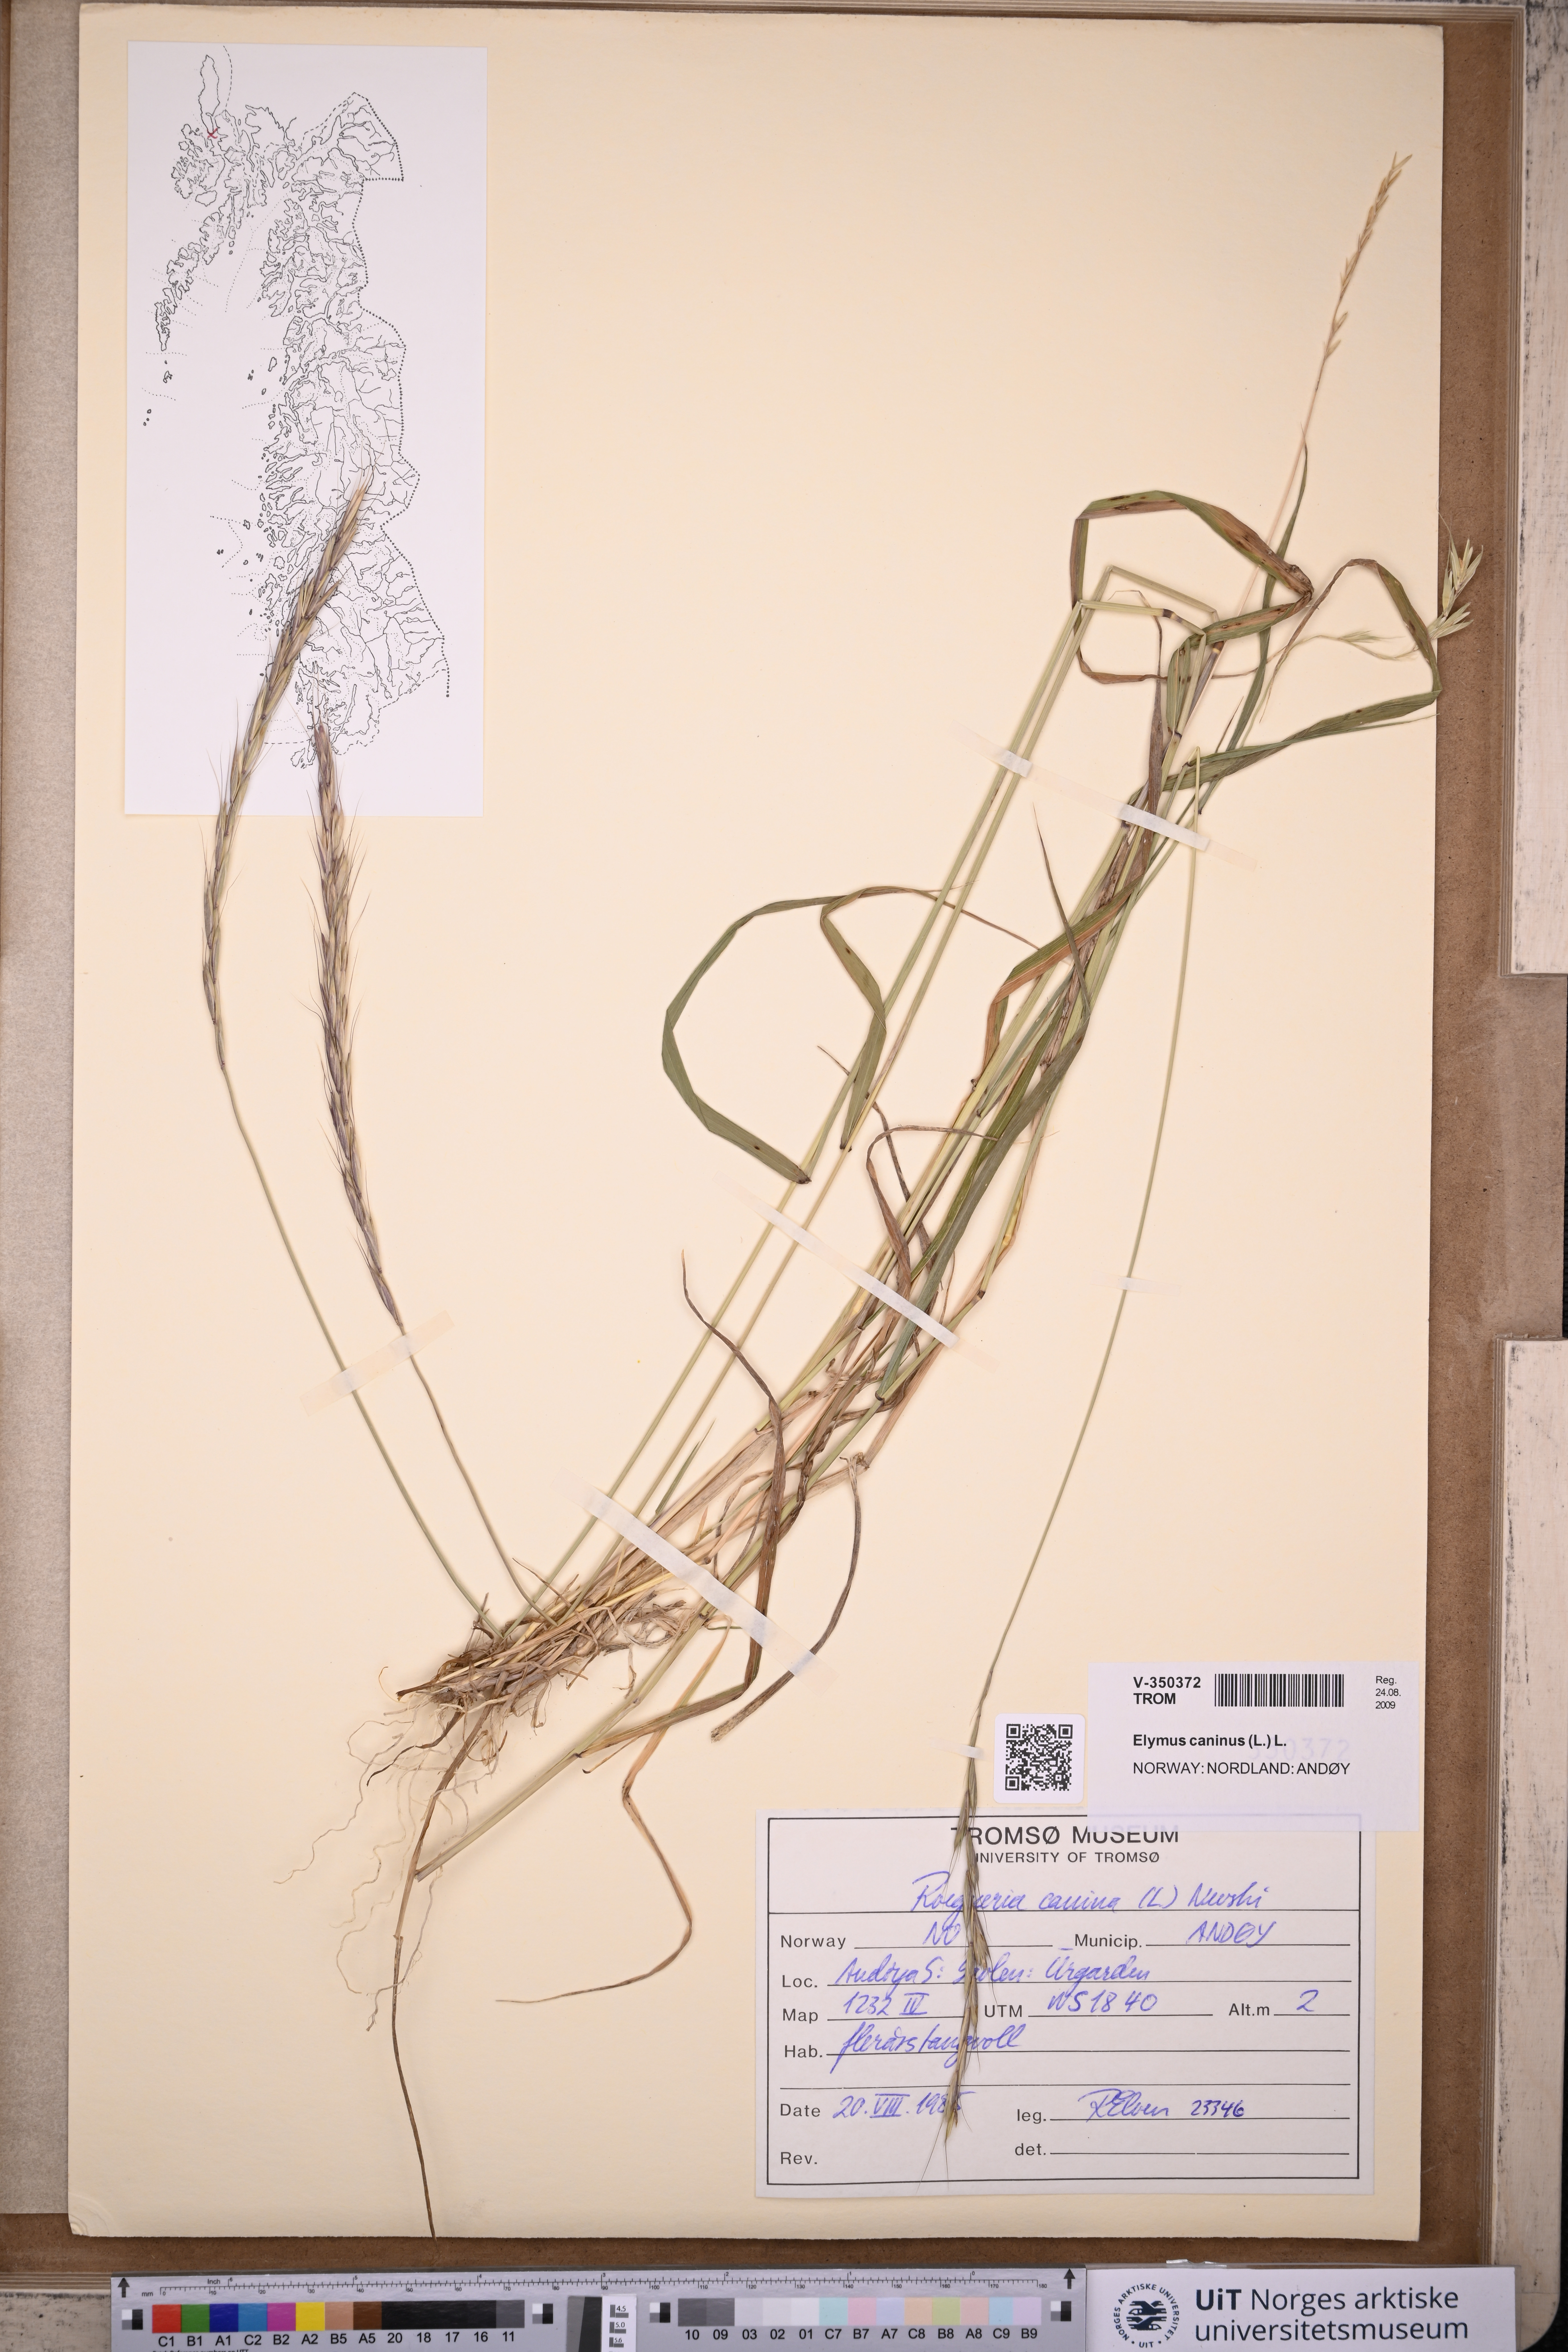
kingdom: Plantae
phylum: Tracheophyta
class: Liliopsida
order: Poales
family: Poaceae
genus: Elymus
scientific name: Elymus caninus
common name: Bearded couch
